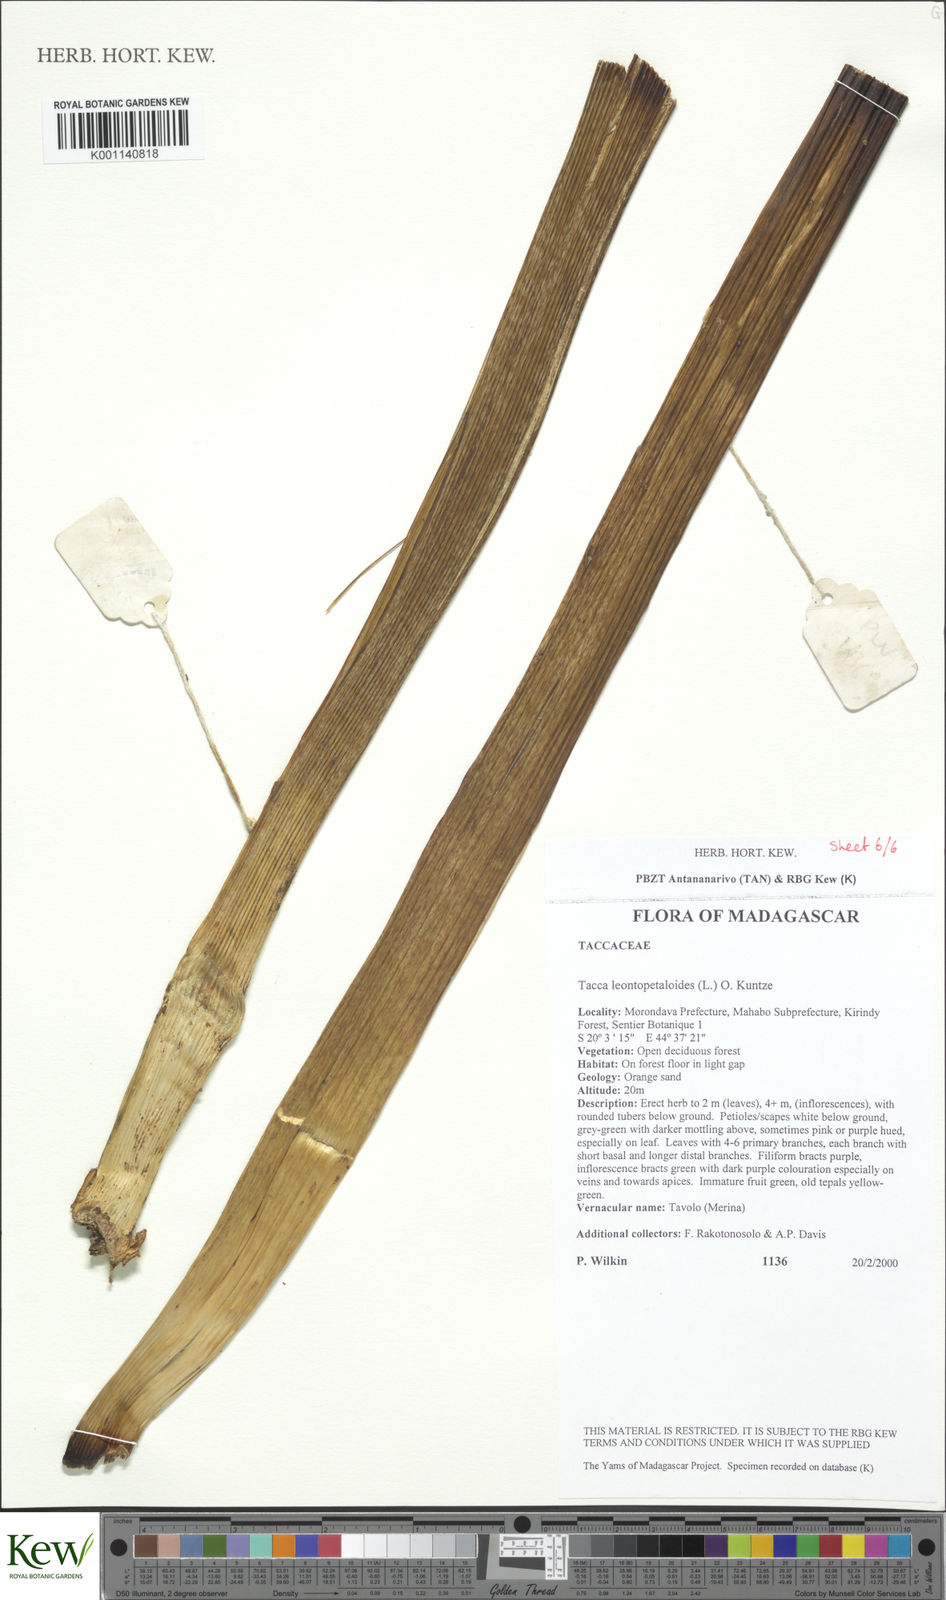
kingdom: Plantae
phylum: Tracheophyta
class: Liliopsida
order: Dioscoreales
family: Dioscoreaceae
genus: Tacca
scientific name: Tacca leontopetaloides
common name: Arrowroot
